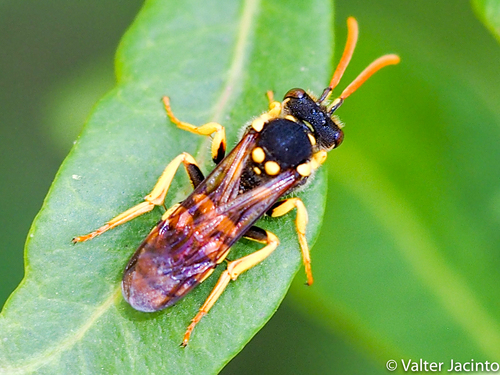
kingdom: Animalia
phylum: Arthropoda
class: Insecta
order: Hymenoptera
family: Apidae
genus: Nomada
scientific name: Nomada goodeniana
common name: Gooden's nomad bee
